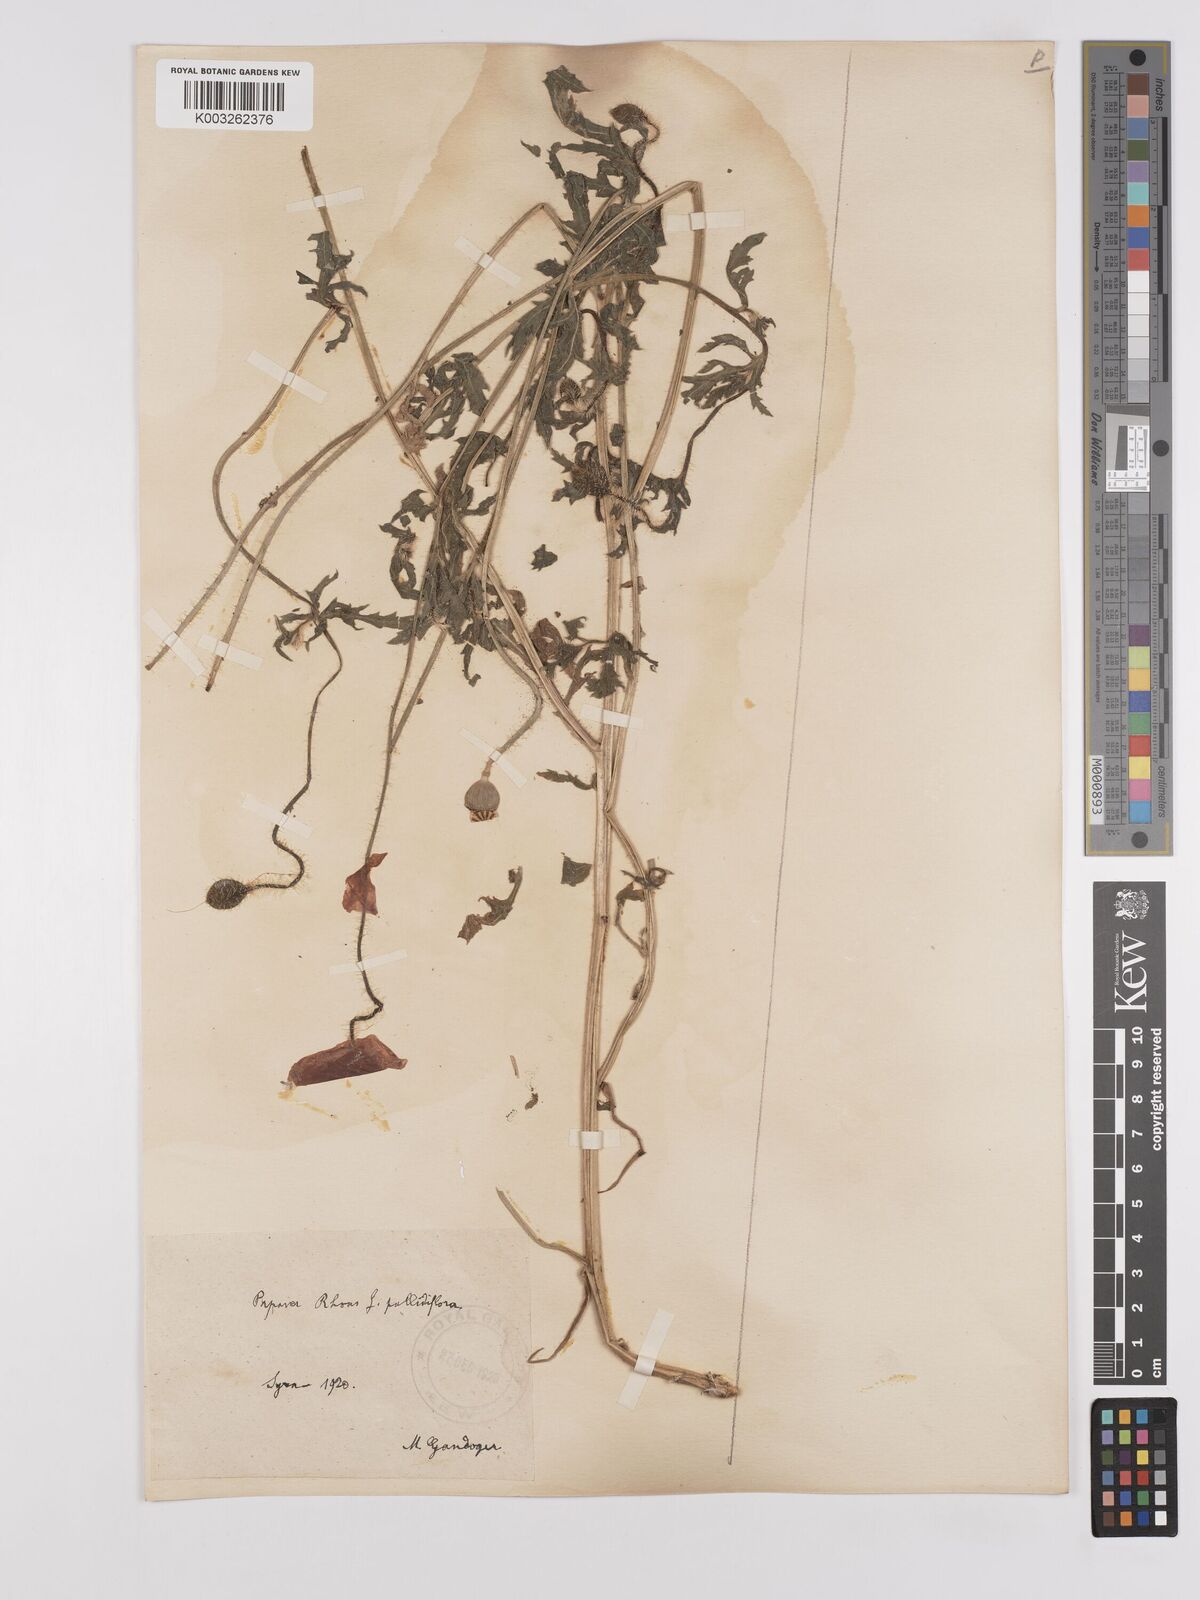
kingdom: Plantae
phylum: Tracheophyta
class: Magnoliopsida
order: Ranunculales
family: Papaveraceae
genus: Papaver
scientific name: Papaver rhoeas
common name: Corn poppy
